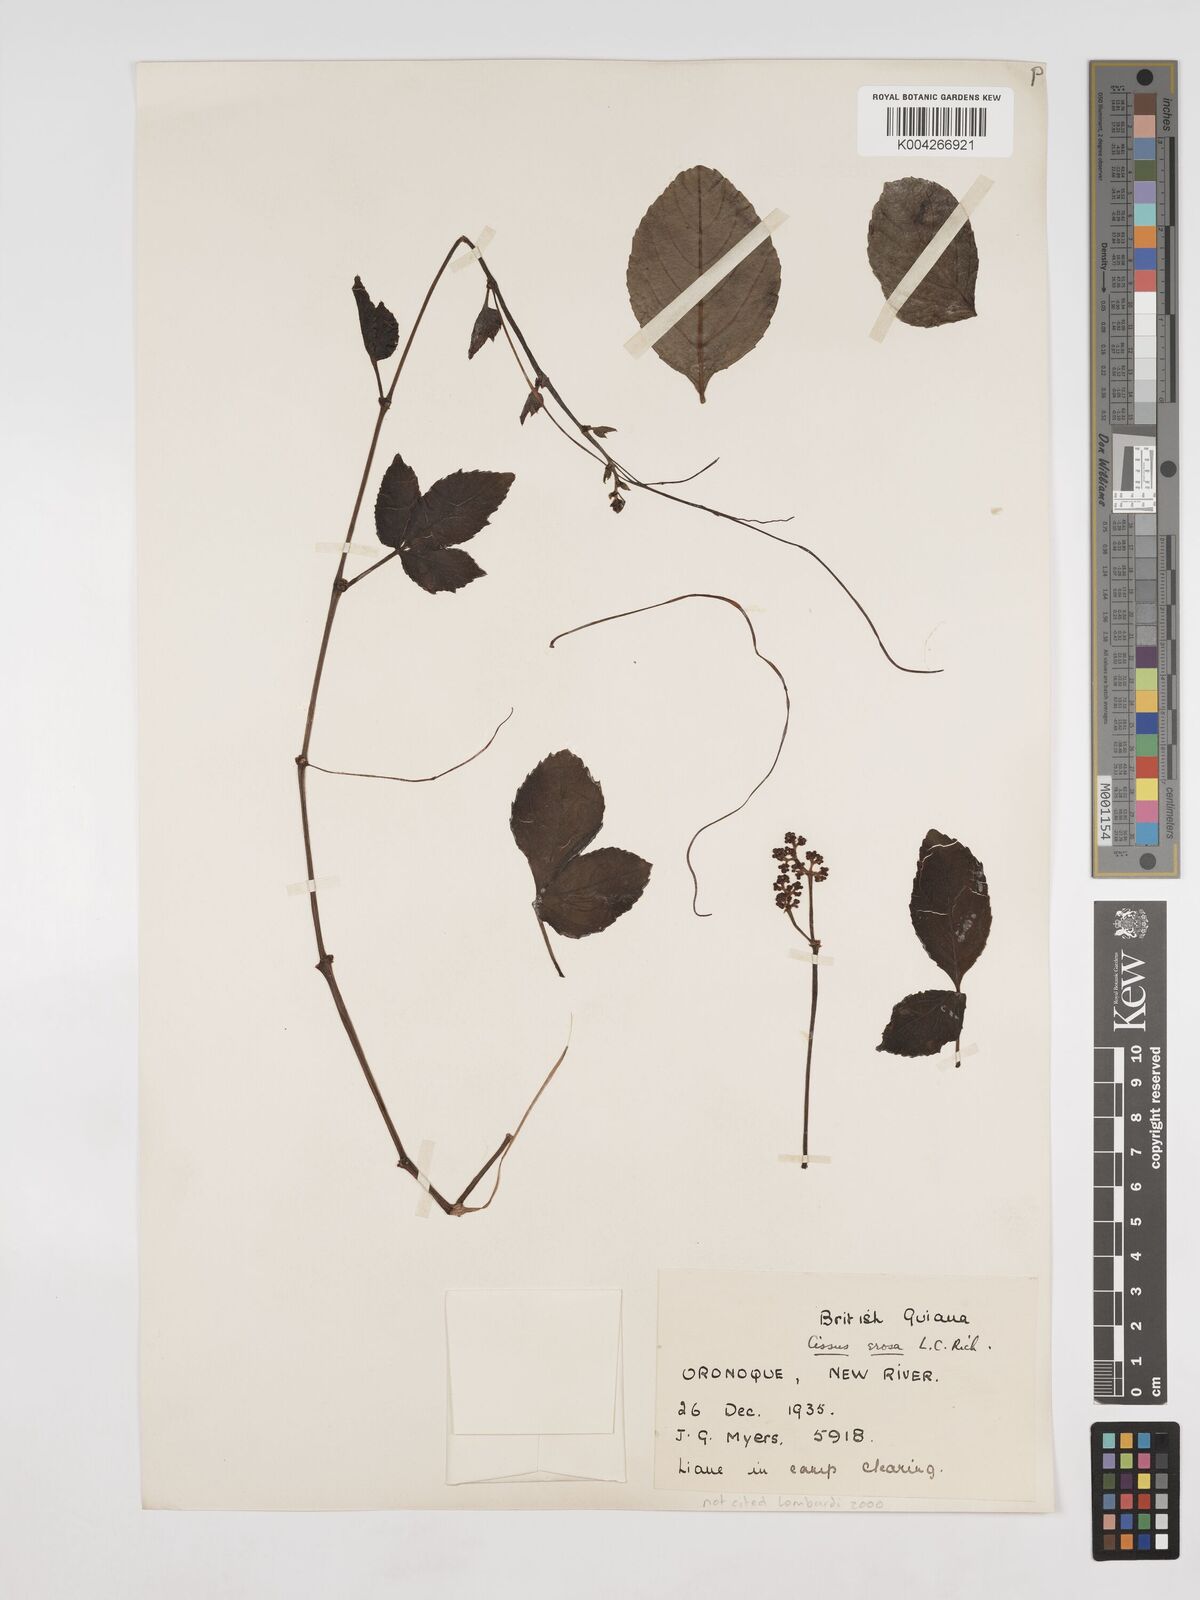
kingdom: Plantae
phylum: Tracheophyta
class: Magnoliopsida
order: Vitales
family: Vitaceae
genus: Cissus
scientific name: Cissus erosa
